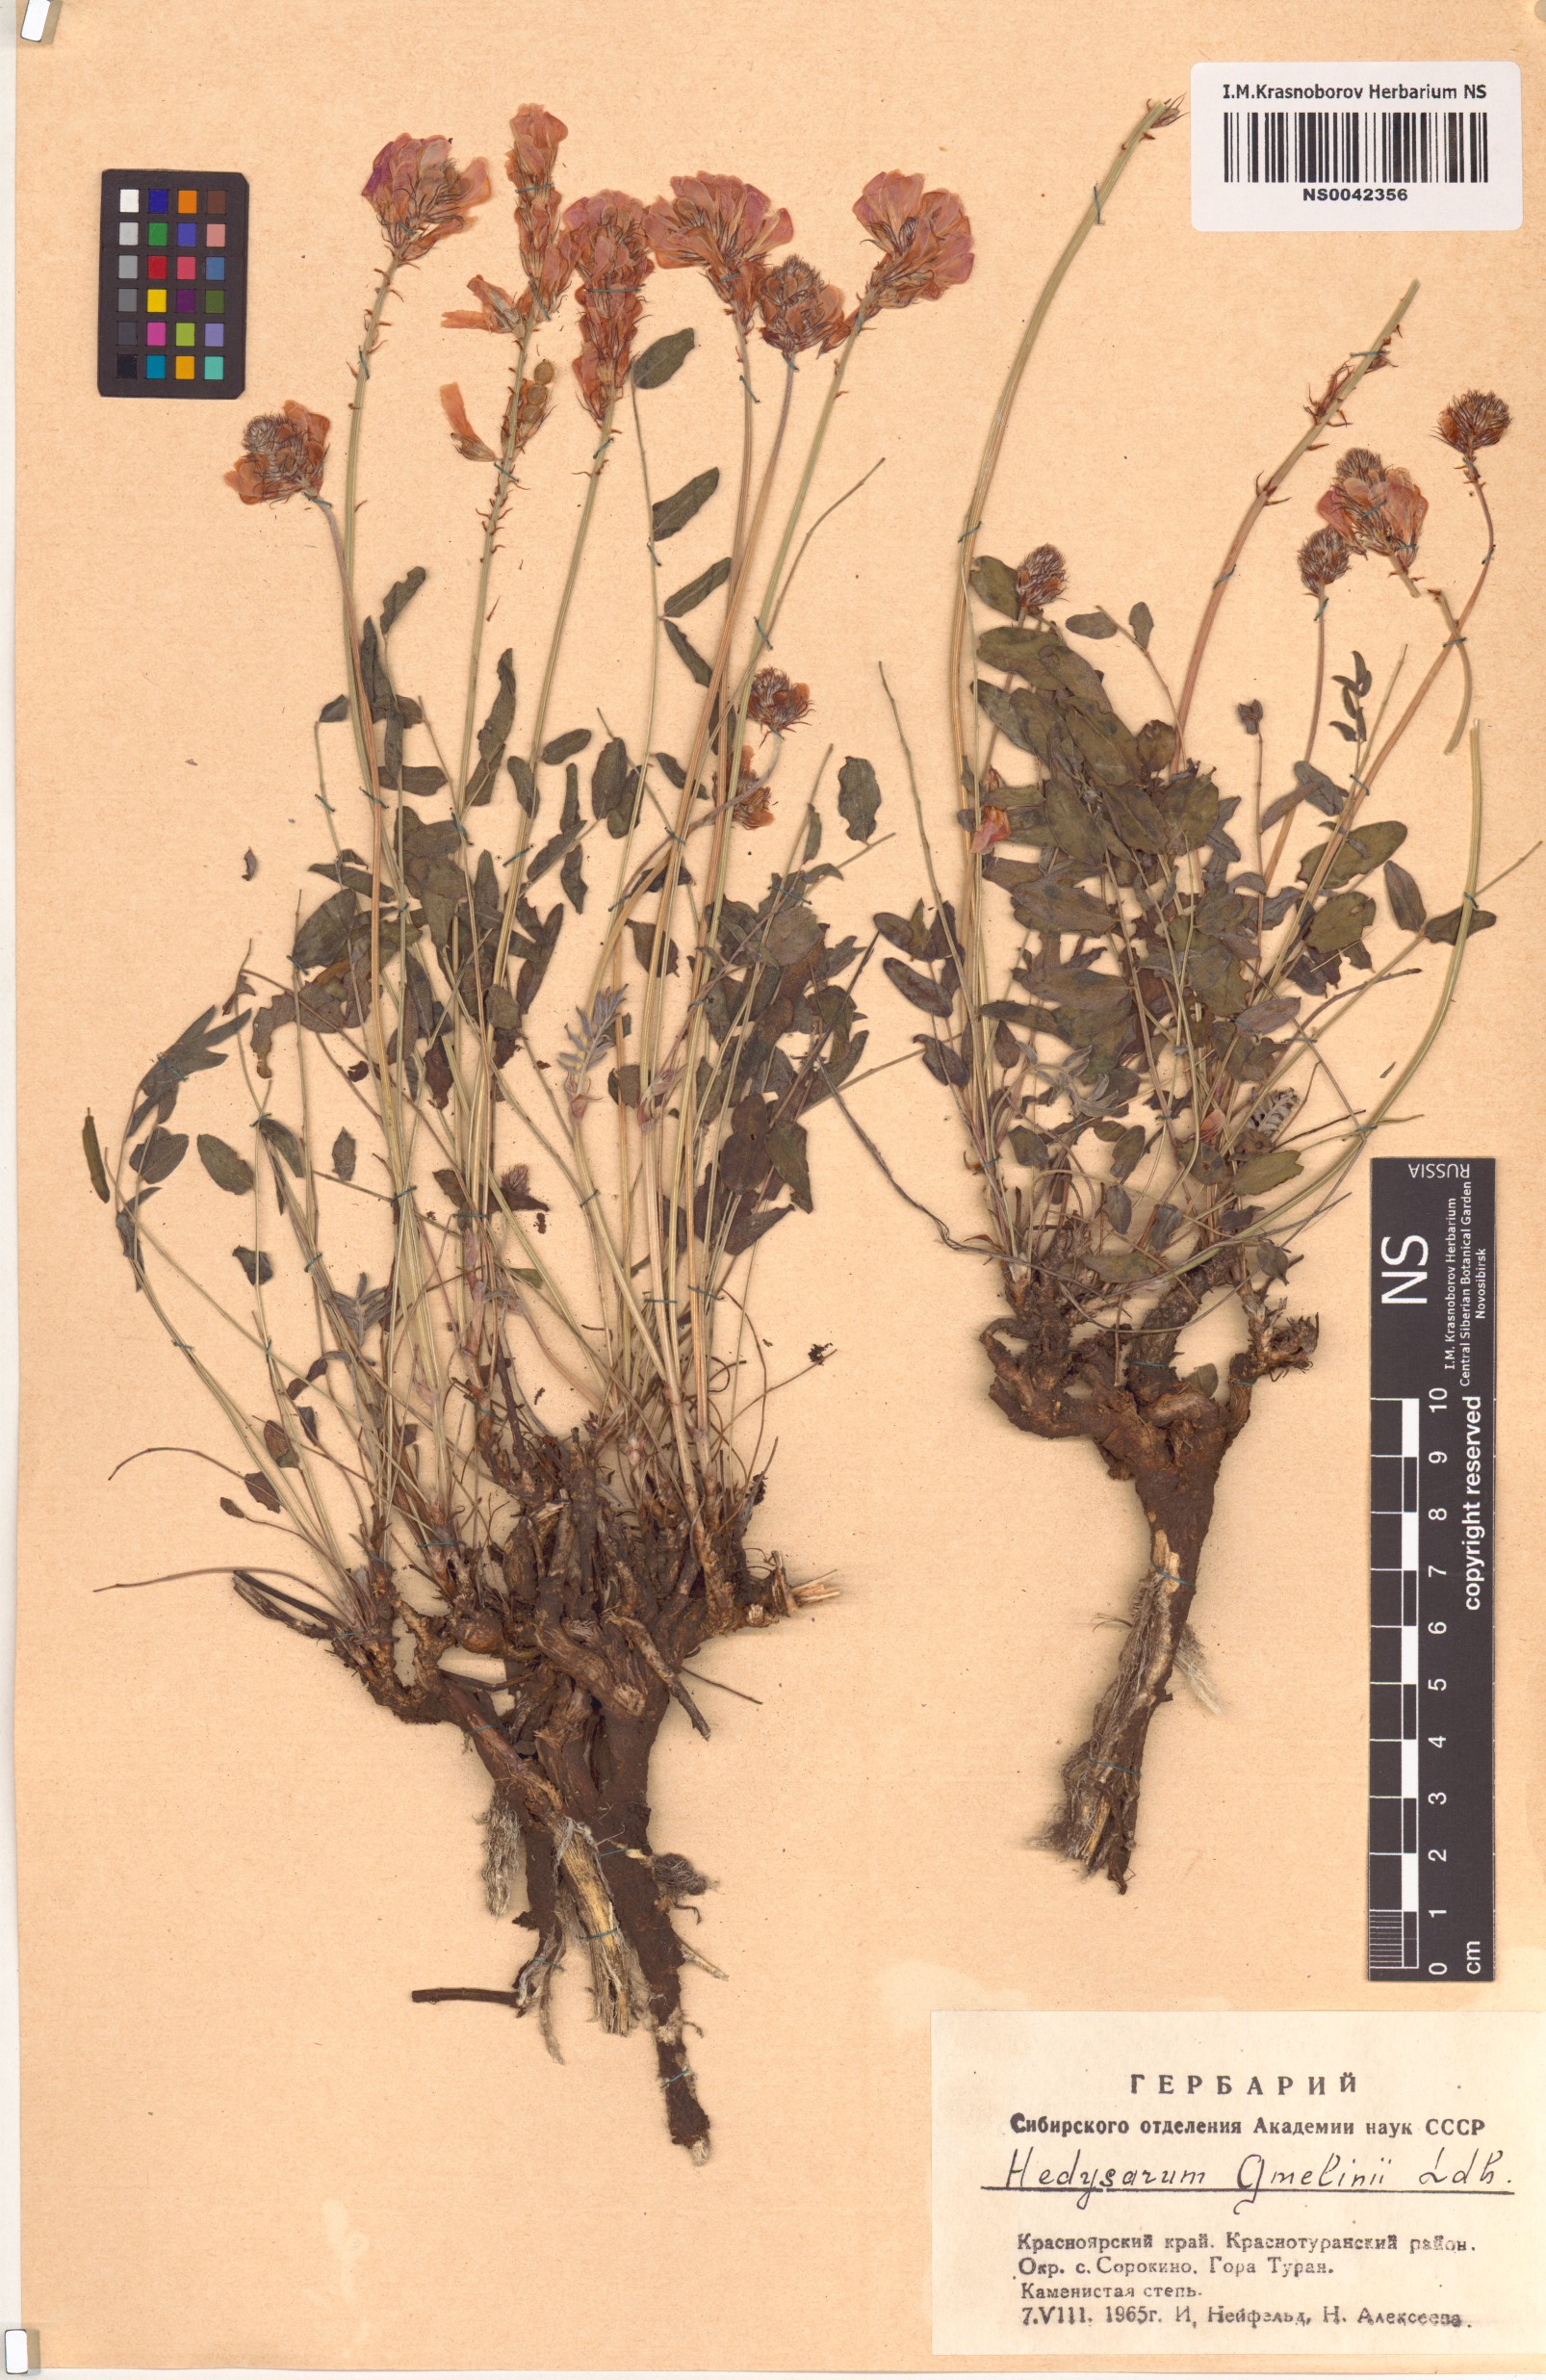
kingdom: Plantae
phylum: Tracheophyta
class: Magnoliopsida
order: Fabales
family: Fabaceae
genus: Hedysarum
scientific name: Hedysarum gmelinii
